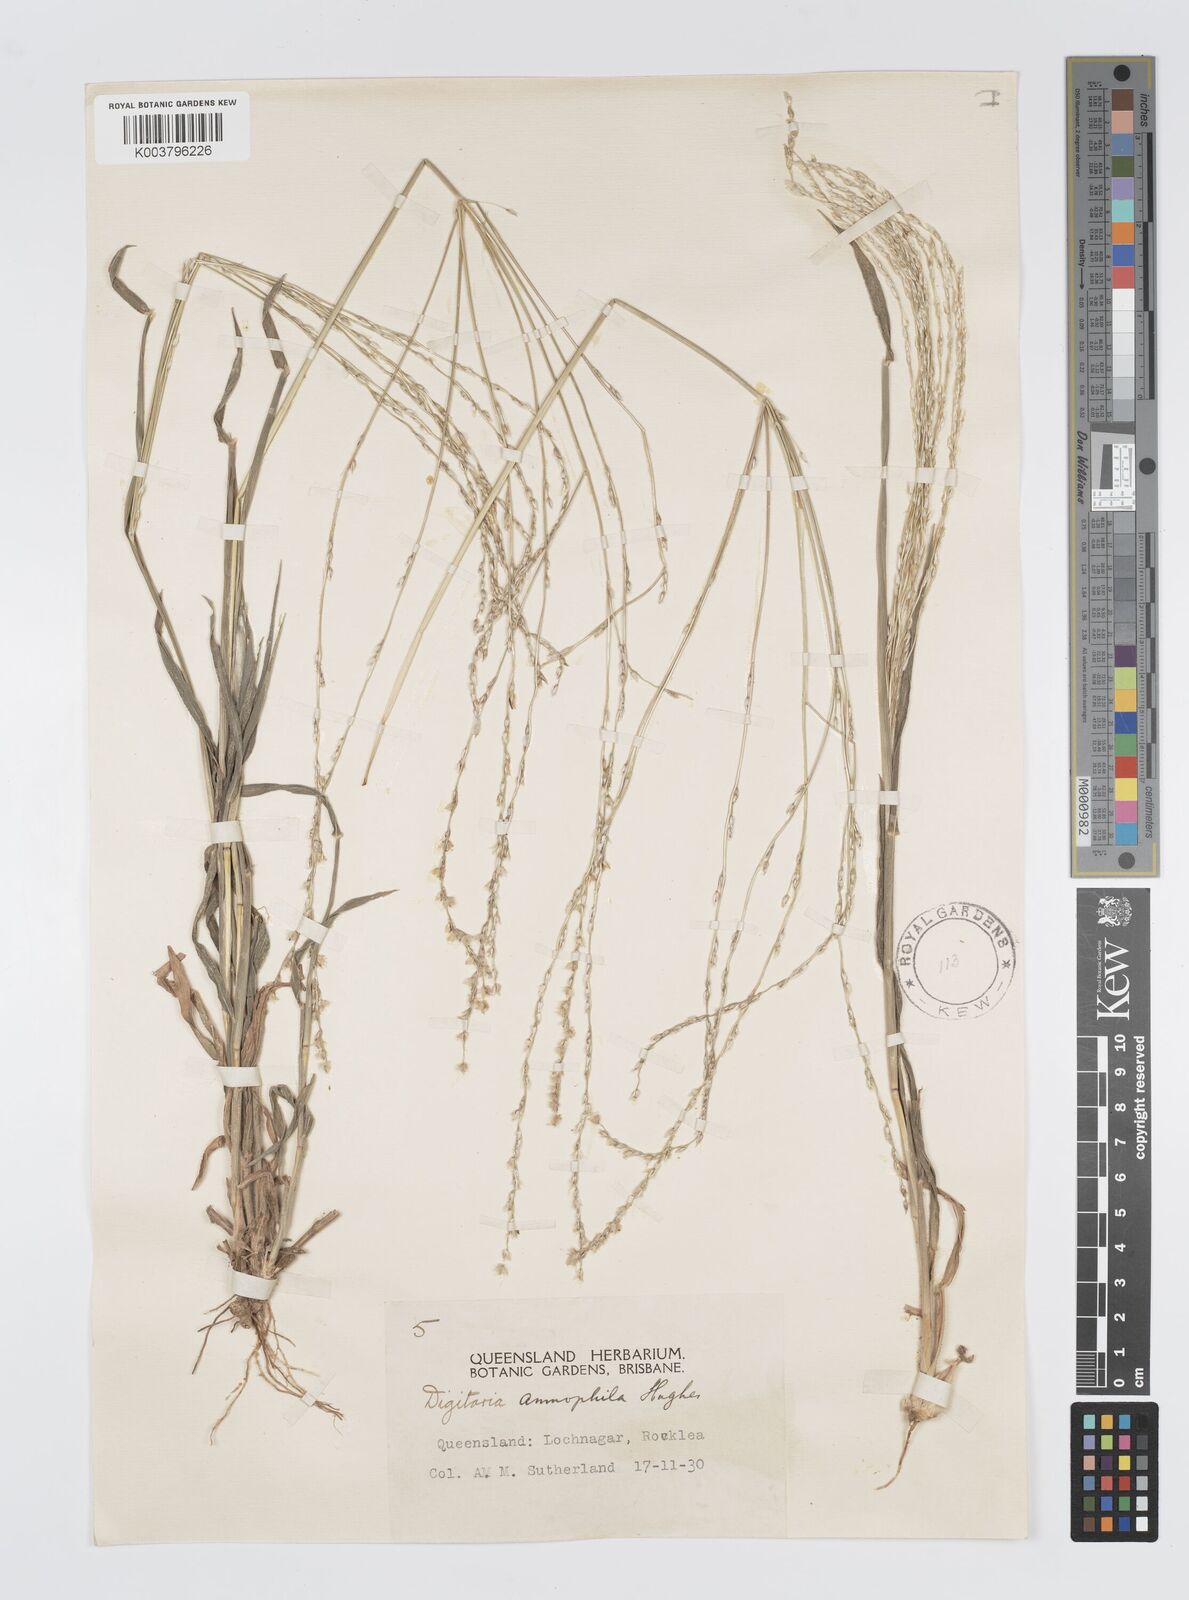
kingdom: Plantae
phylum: Tracheophyta
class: Liliopsida
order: Poales
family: Poaceae
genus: Digitaria
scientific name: Digitaria ammophila
